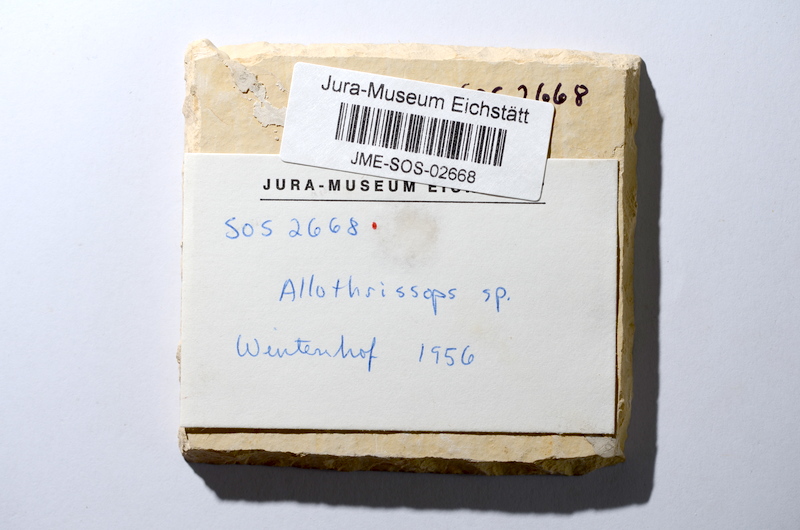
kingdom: Animalia
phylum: Chordata
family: Allothrissopidae
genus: Allothrissops
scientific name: Allothrissops mesogaster
